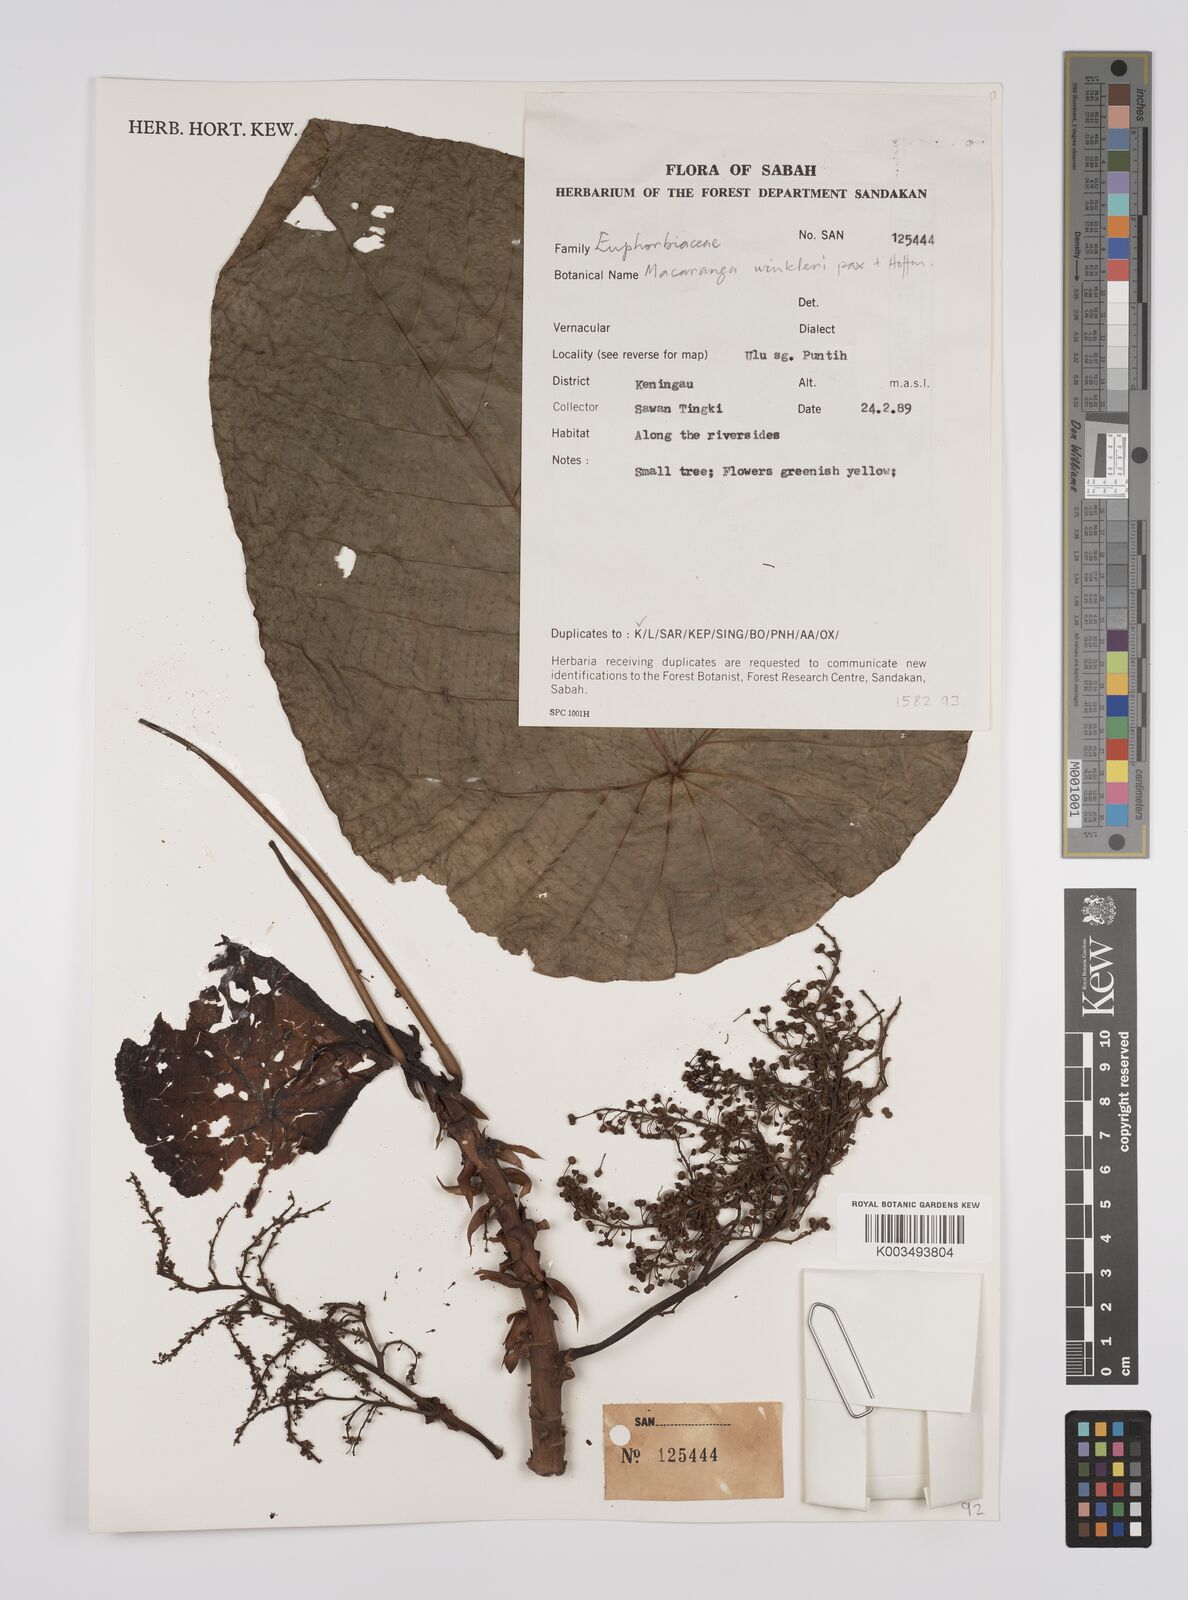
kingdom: Plantae
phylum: Tracheophyta
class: Magnoliopsida
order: Malpighiales
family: Euphorbiaceae
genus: Macaranga
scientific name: Macaranga winkleri
